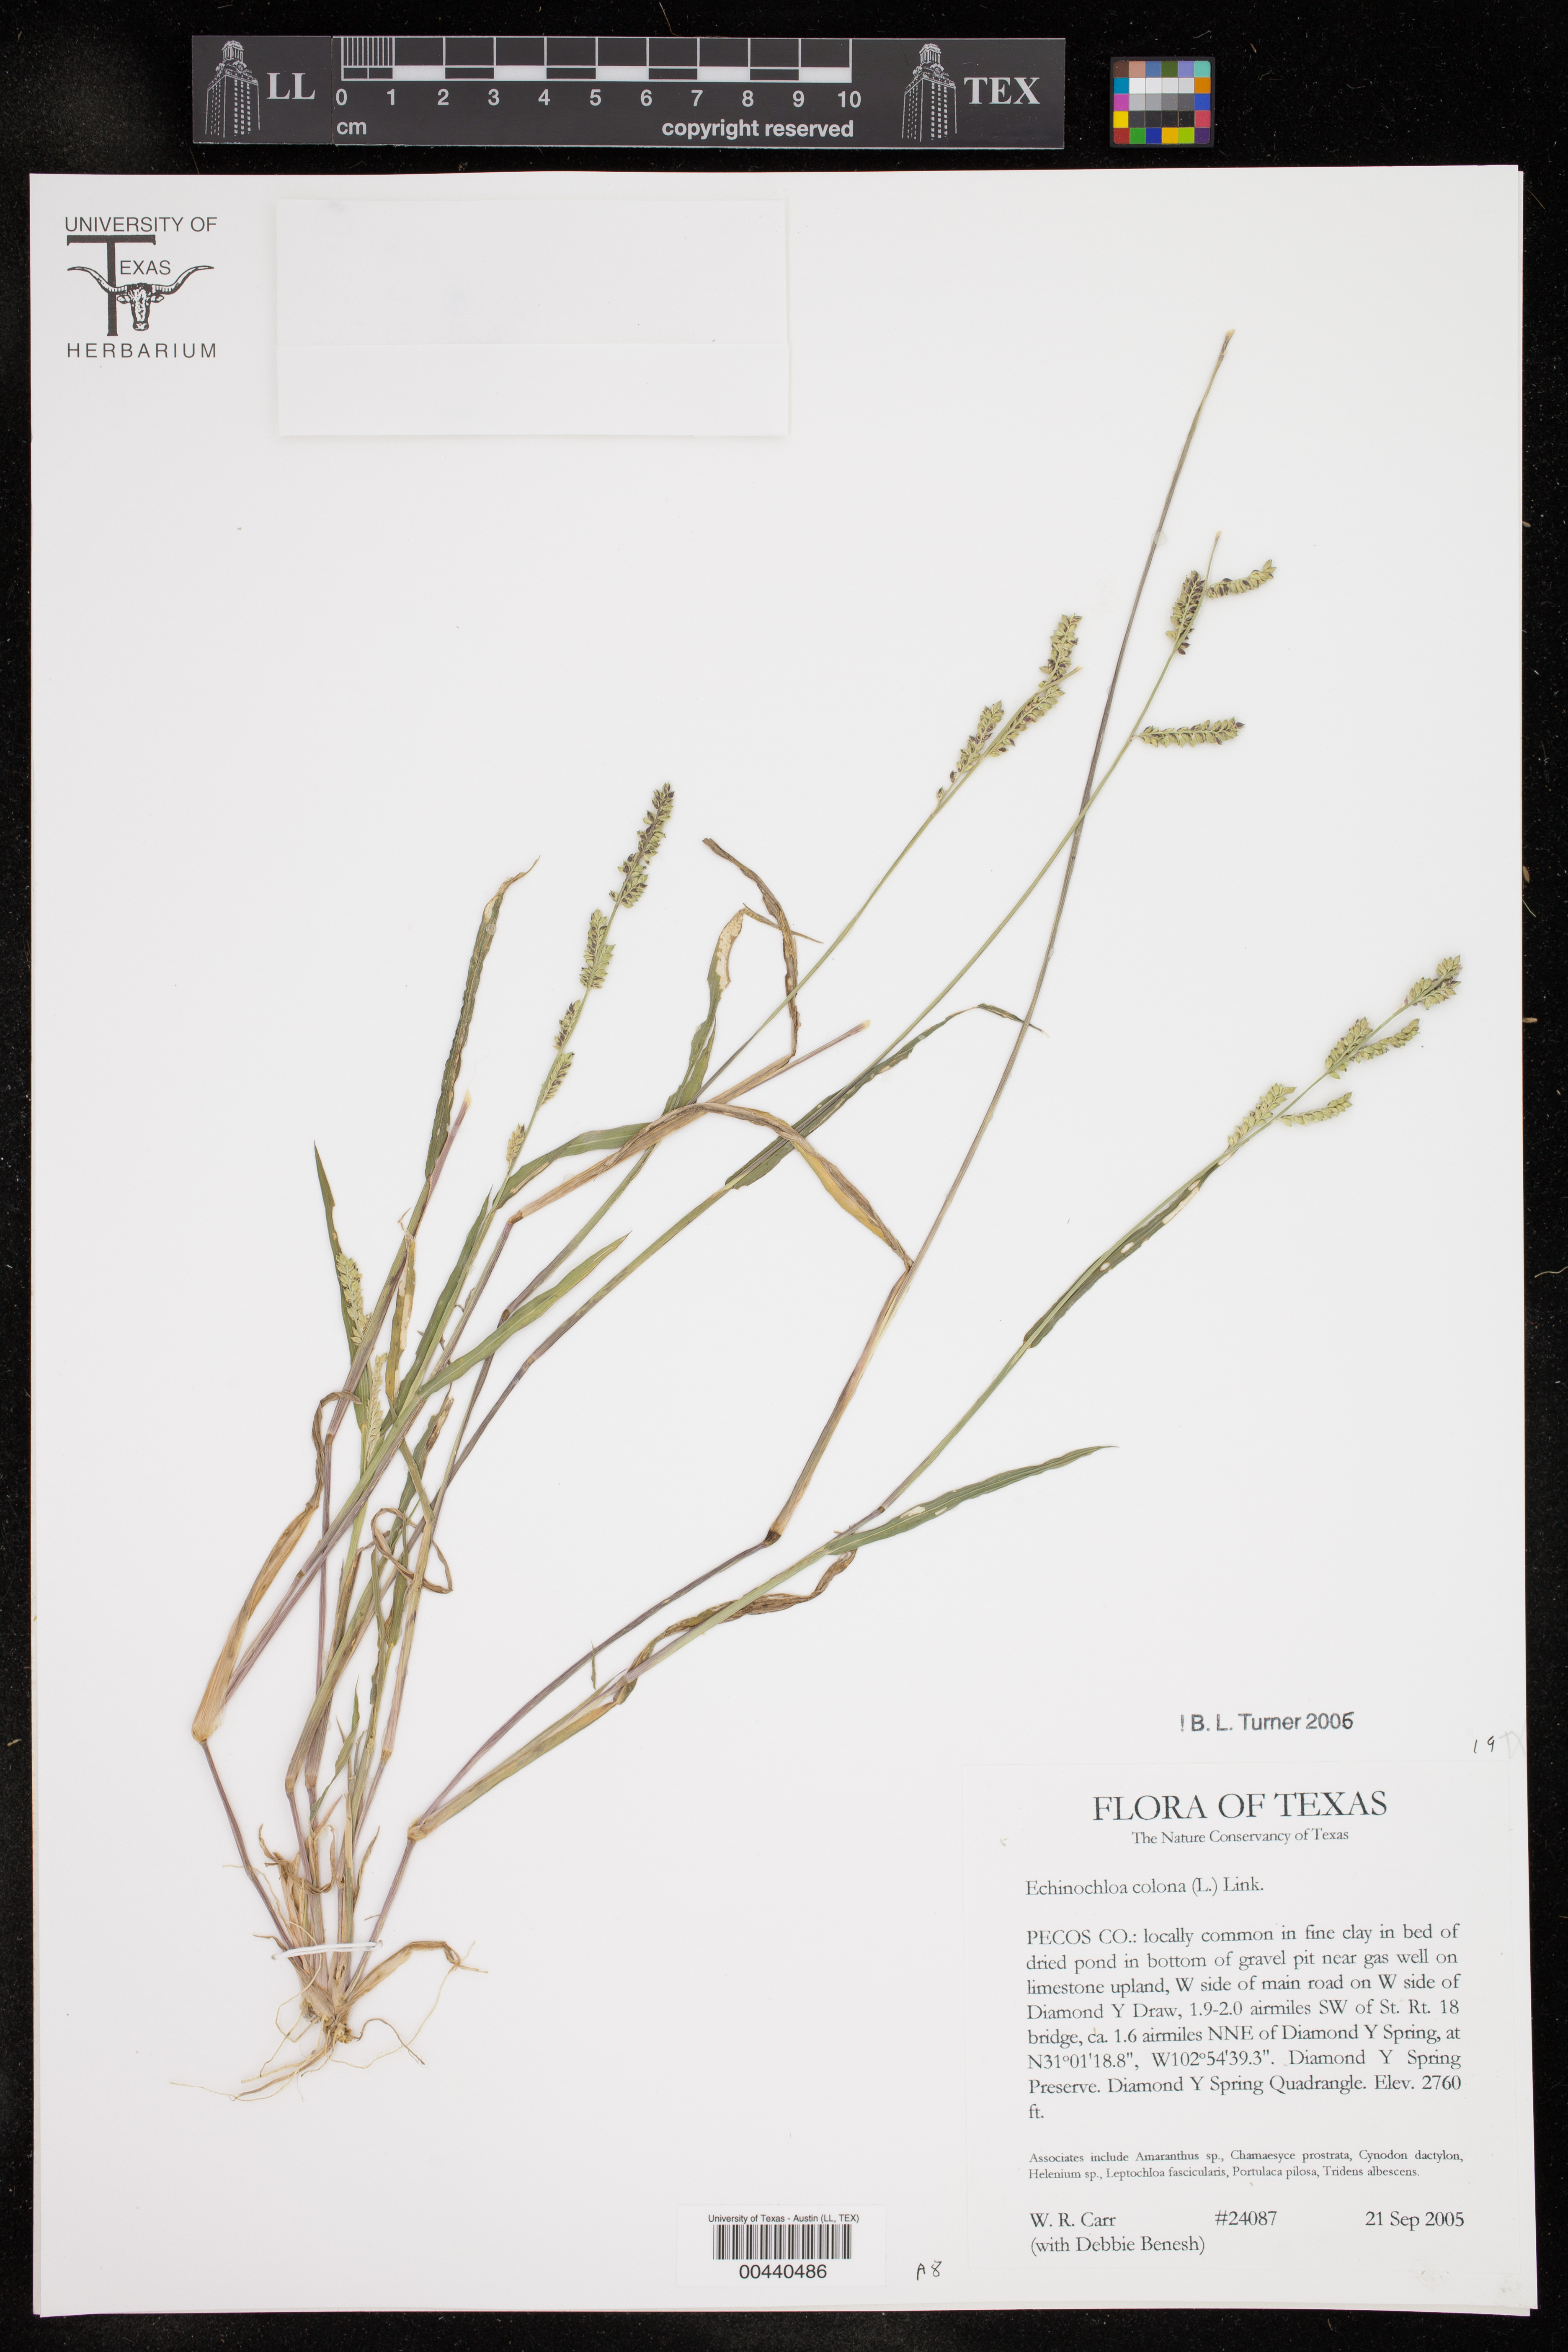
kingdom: Plantae
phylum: Tracheophyta
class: Liliopsida
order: Poales
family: Poaceae
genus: Echinochloa
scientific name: Echinochloa colonum
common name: Jungle rice
